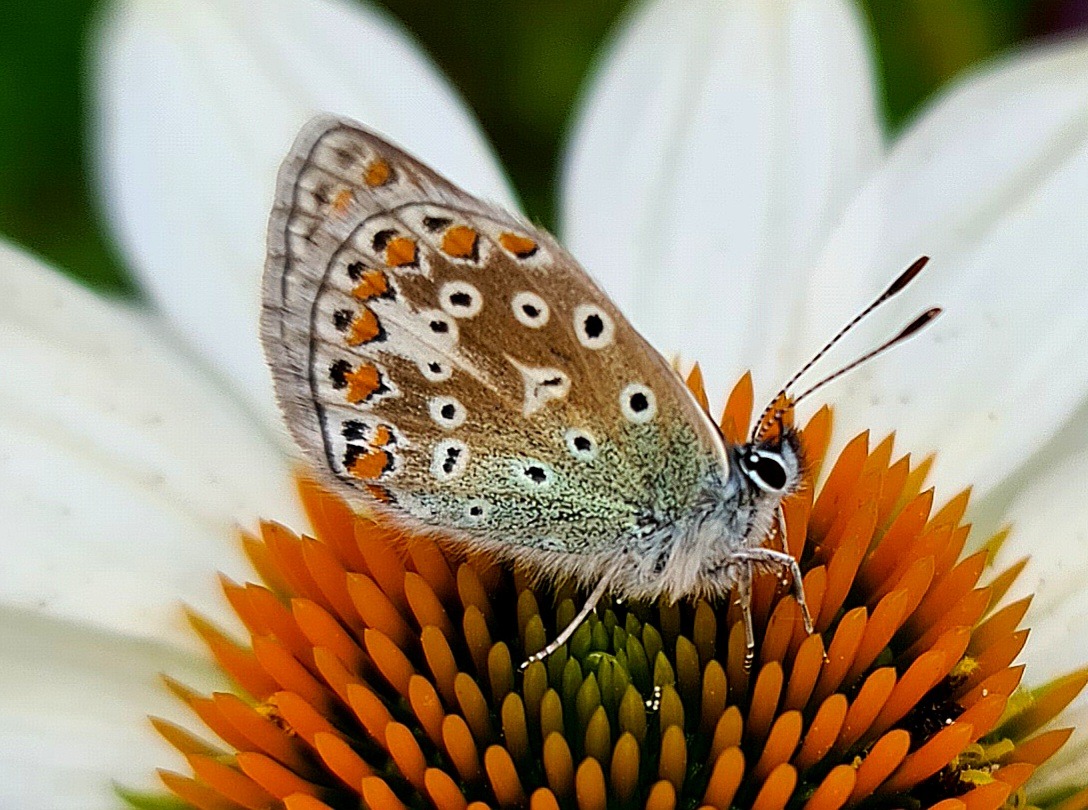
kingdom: Animalia
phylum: Arthropoda
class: Insecta
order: Lepidoptera
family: Lycaenidae
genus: Polyommatus
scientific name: Polyommatus icarus
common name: Almindelig blåfugl
